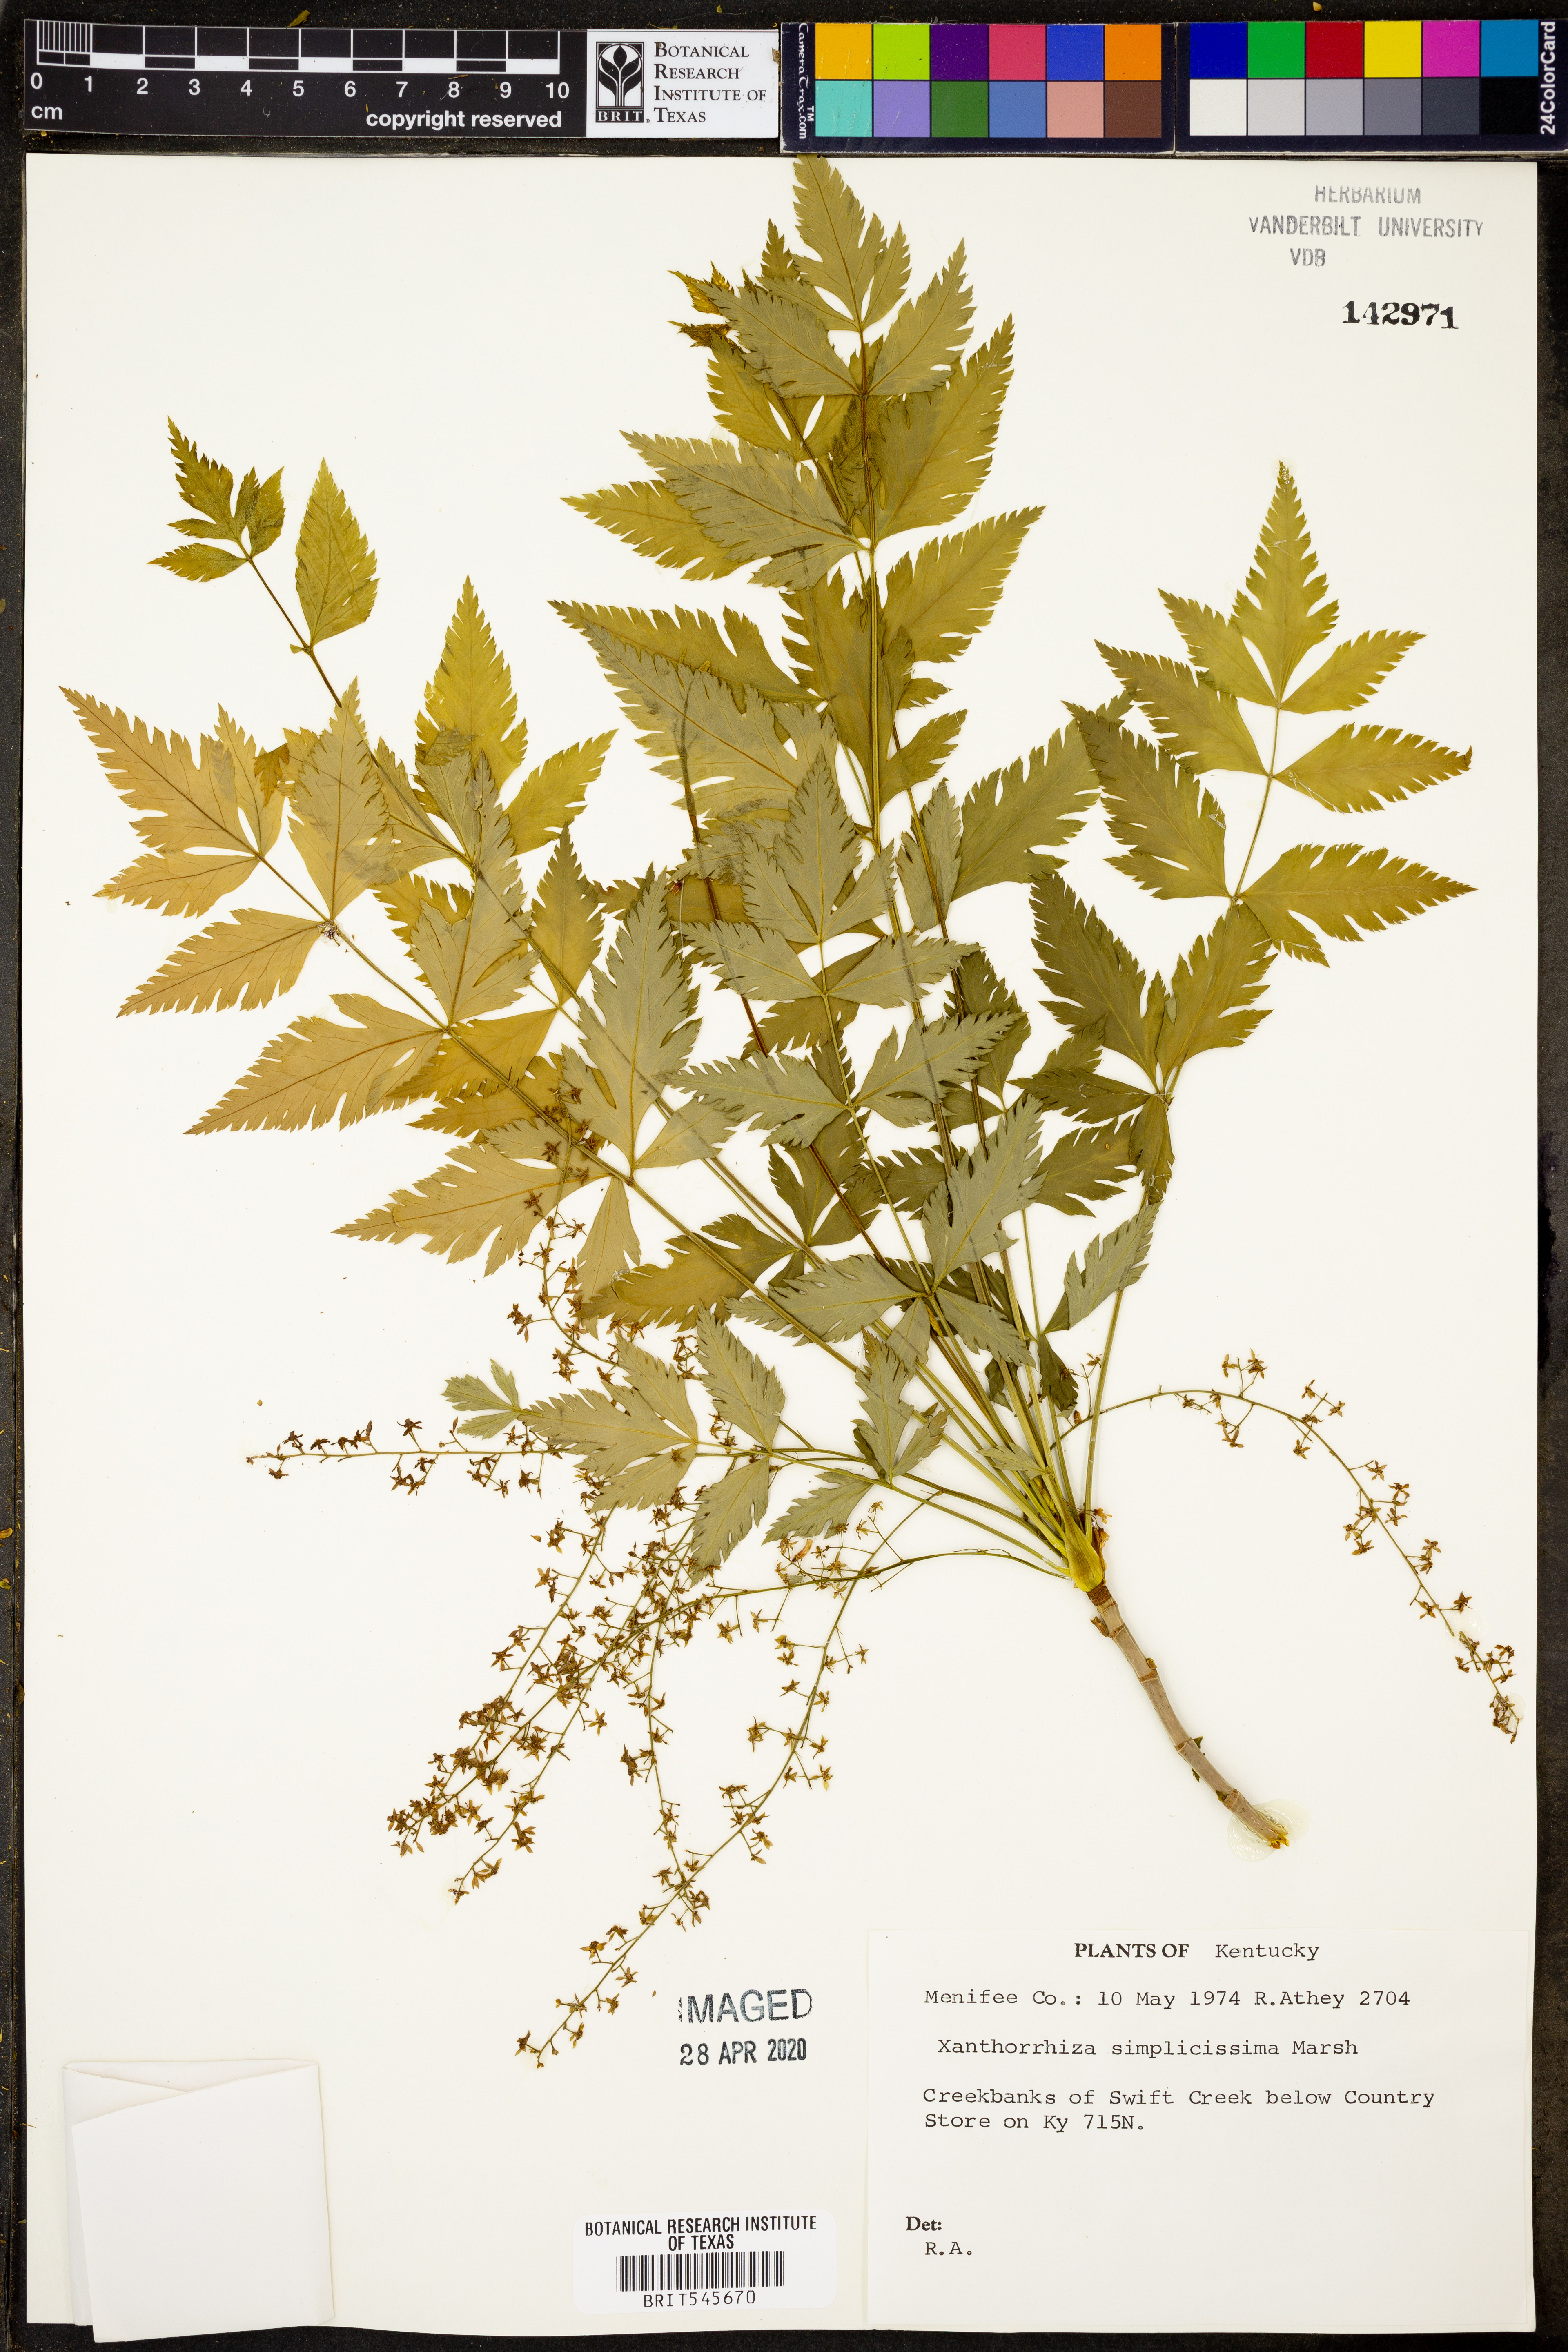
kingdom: Plantae
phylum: Tracheophyta
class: Magnoliopsida
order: Ranunculales
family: Ranunculaceae
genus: Xanthorhiza
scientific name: Xanthorhiza simplicissima
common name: Yellowroot
